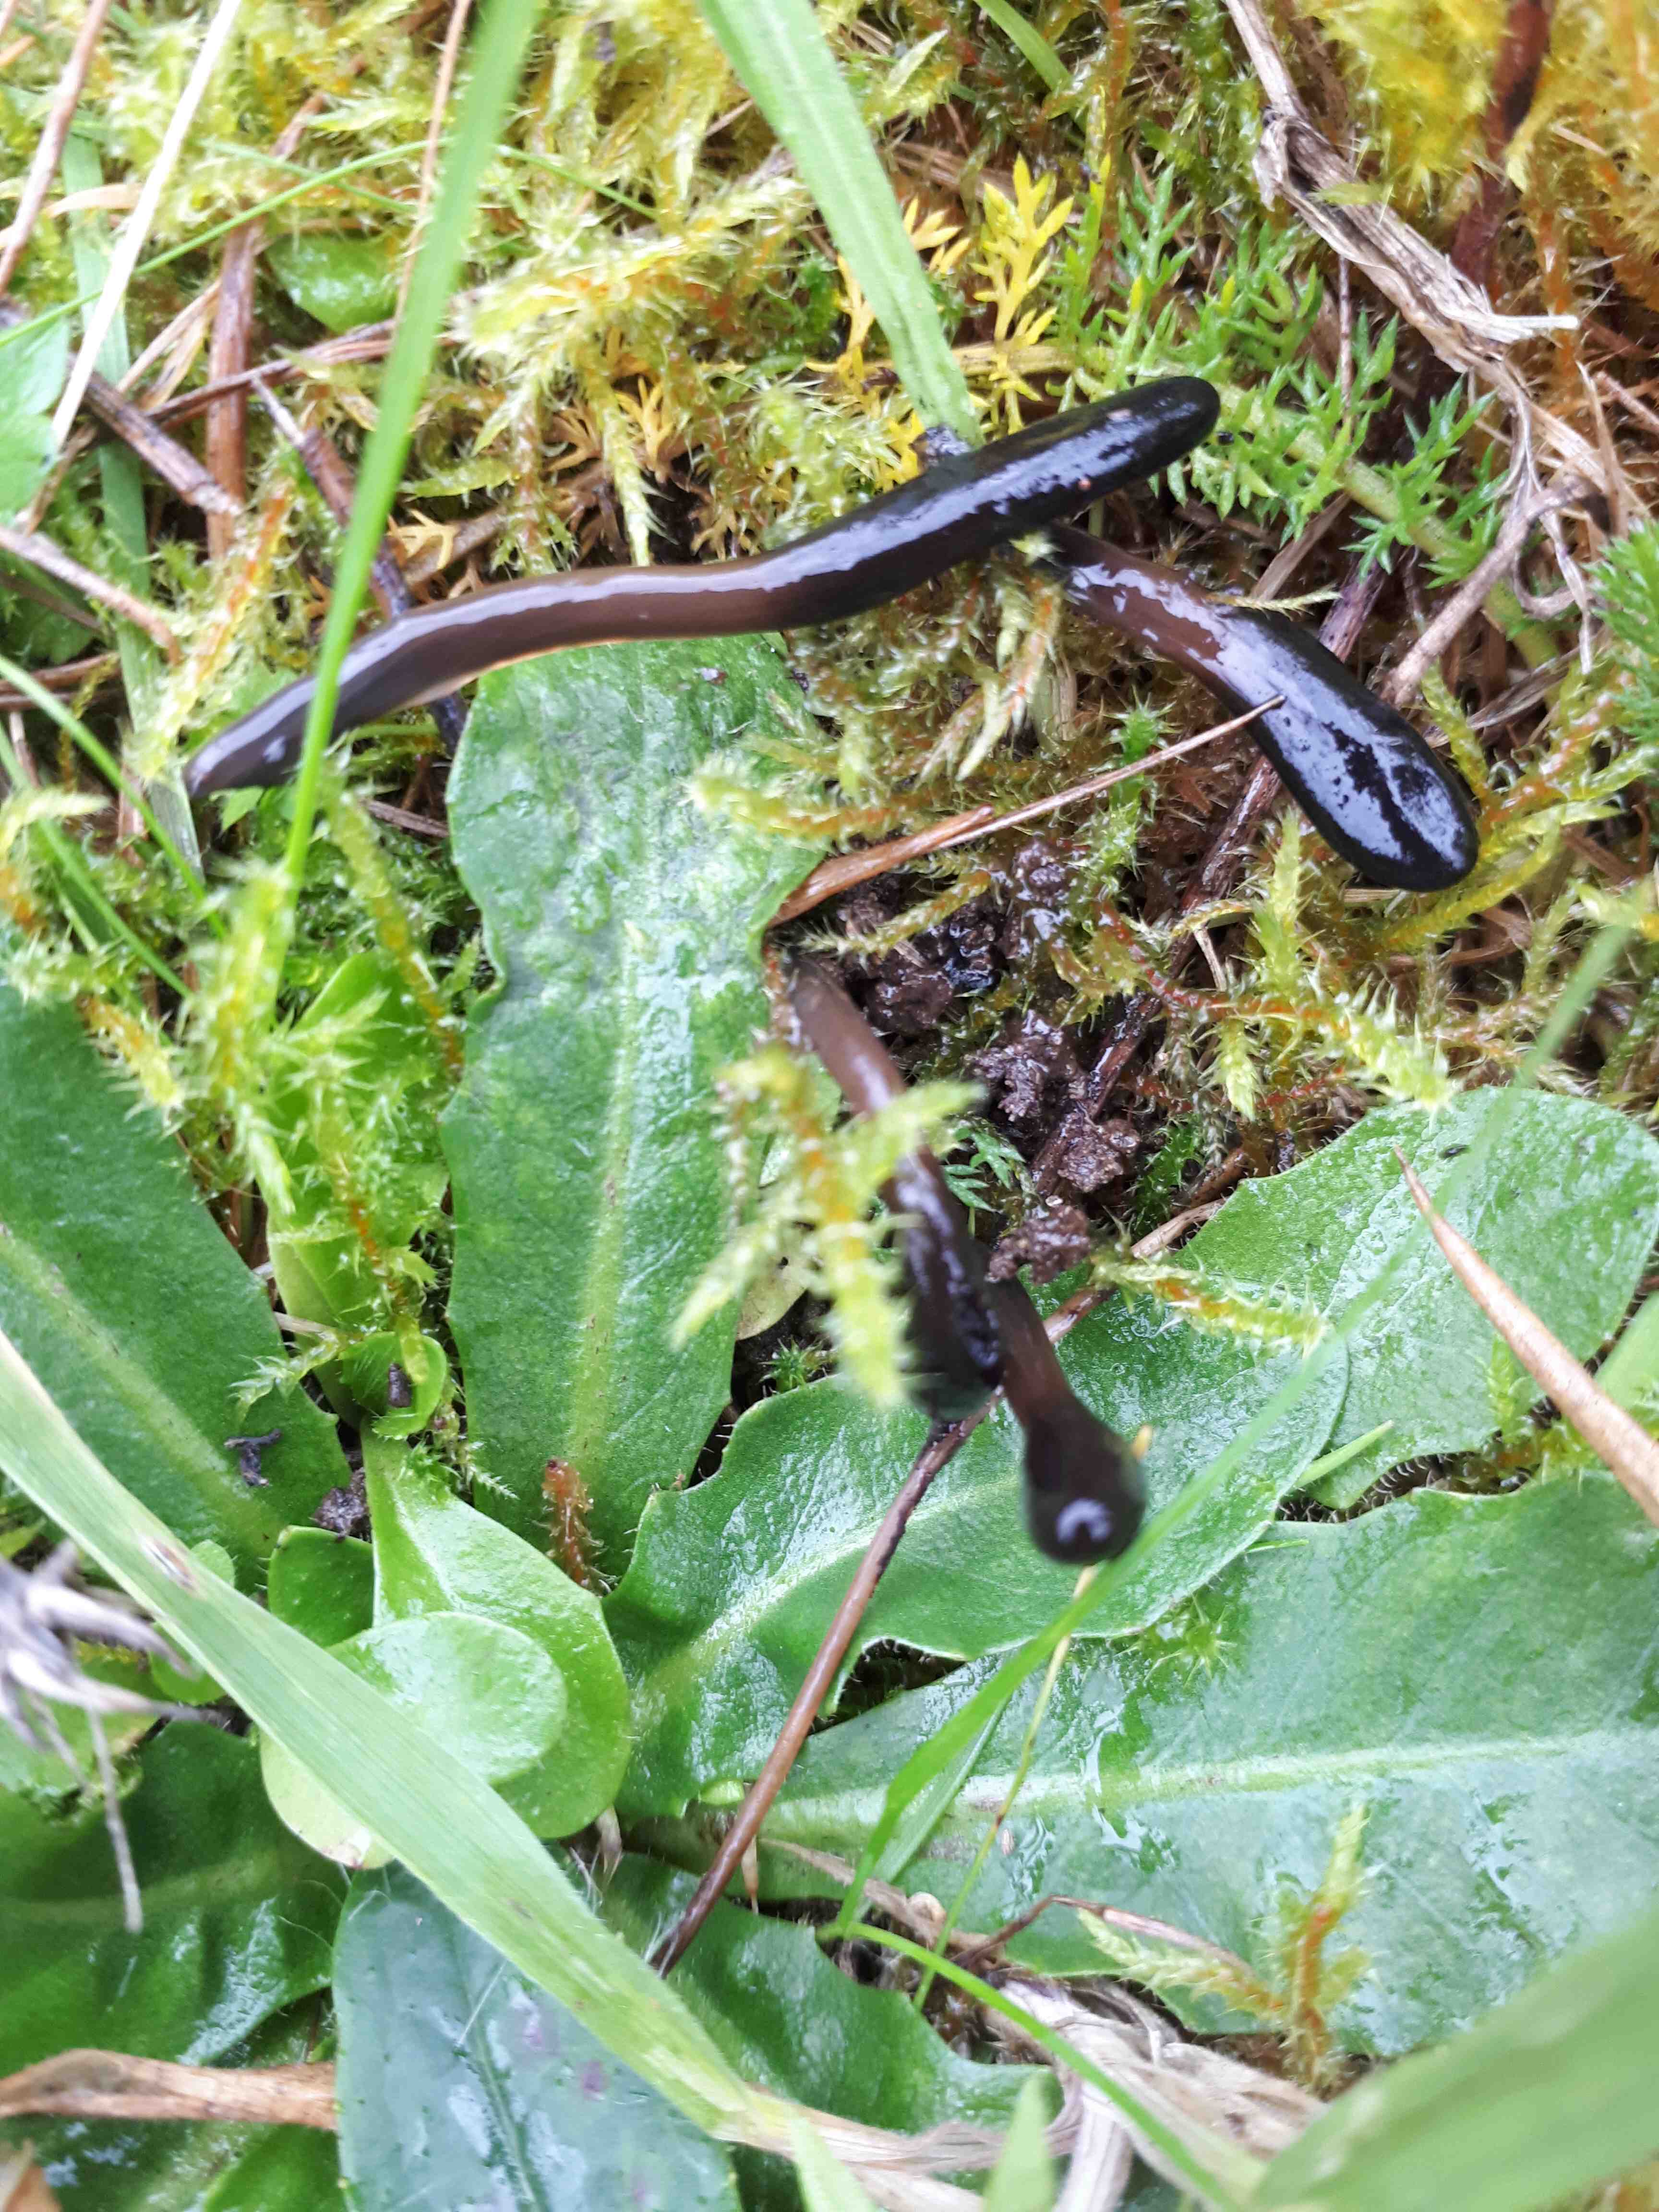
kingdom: Fungi
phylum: Ascomycota
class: Geoglossomycetes
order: Geoglossales
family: Geoglossaceae
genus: Glutinoglossum
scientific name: Glutinoglossum glutinosum
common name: slimet jordtunge
